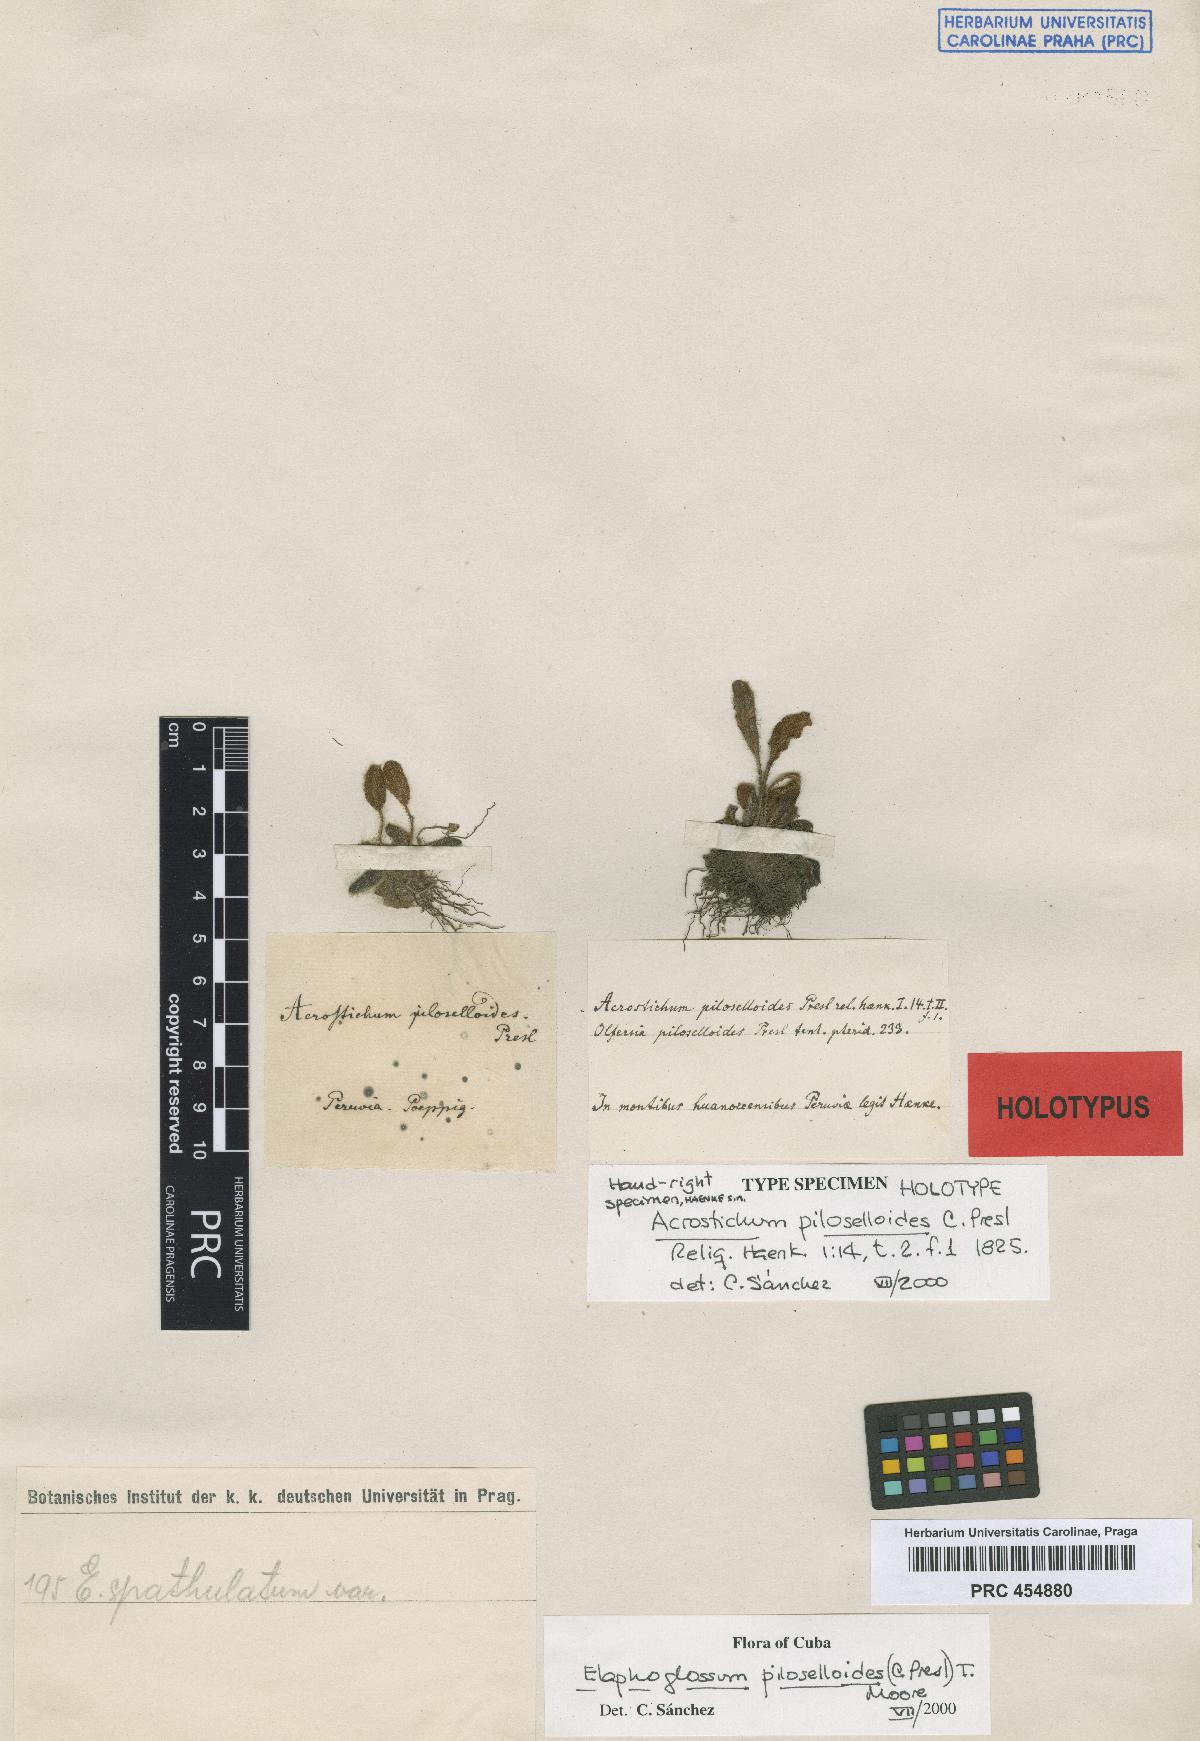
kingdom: Plantae
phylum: Tracheophyta
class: Polypodiopsida
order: Polypodiales
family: Dryopteridaceae
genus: Elaphoglossum
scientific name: Elaphoglossum piloselloides
